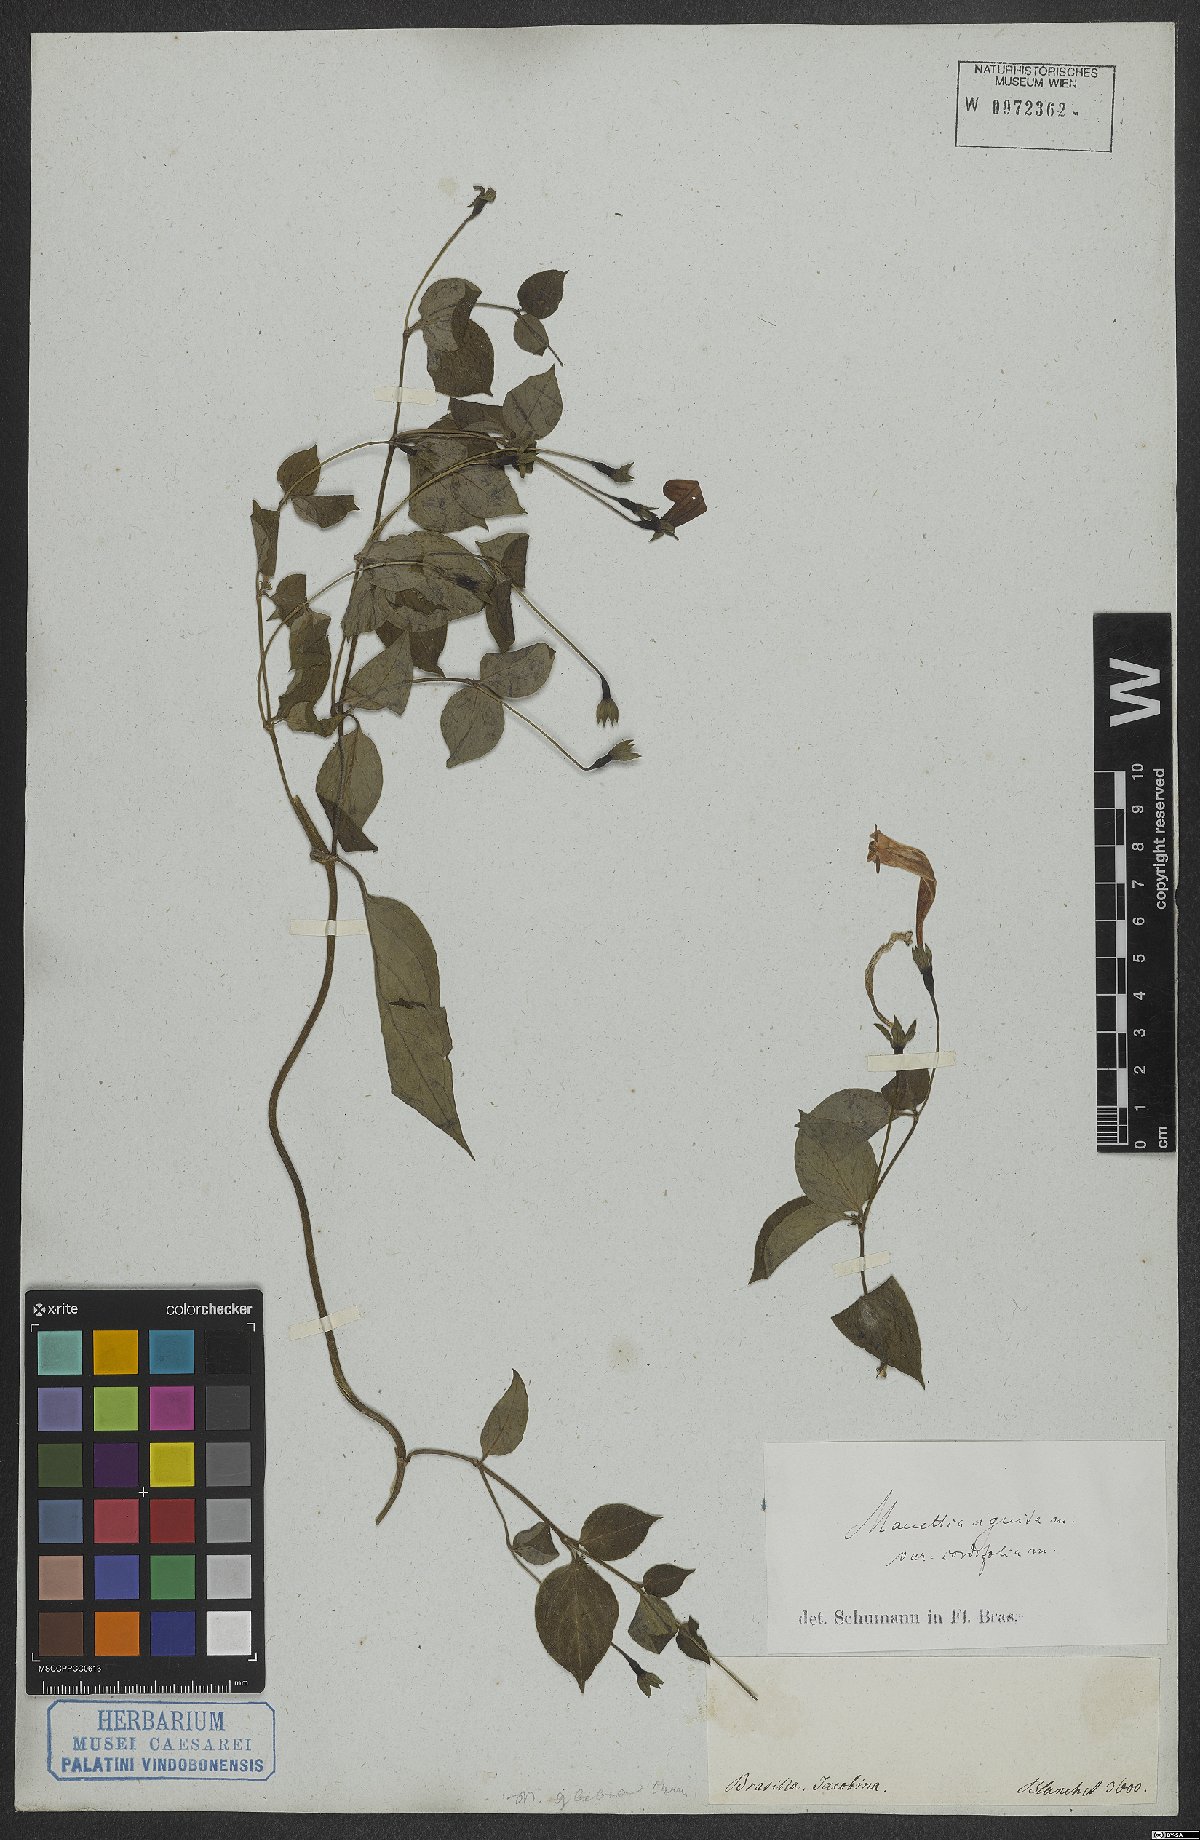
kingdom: Plantae
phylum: Tracheophyta
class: Magnoliopsida
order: Gentianales
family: Rubiaceae
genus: Manettia
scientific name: Manettia cordifolia
